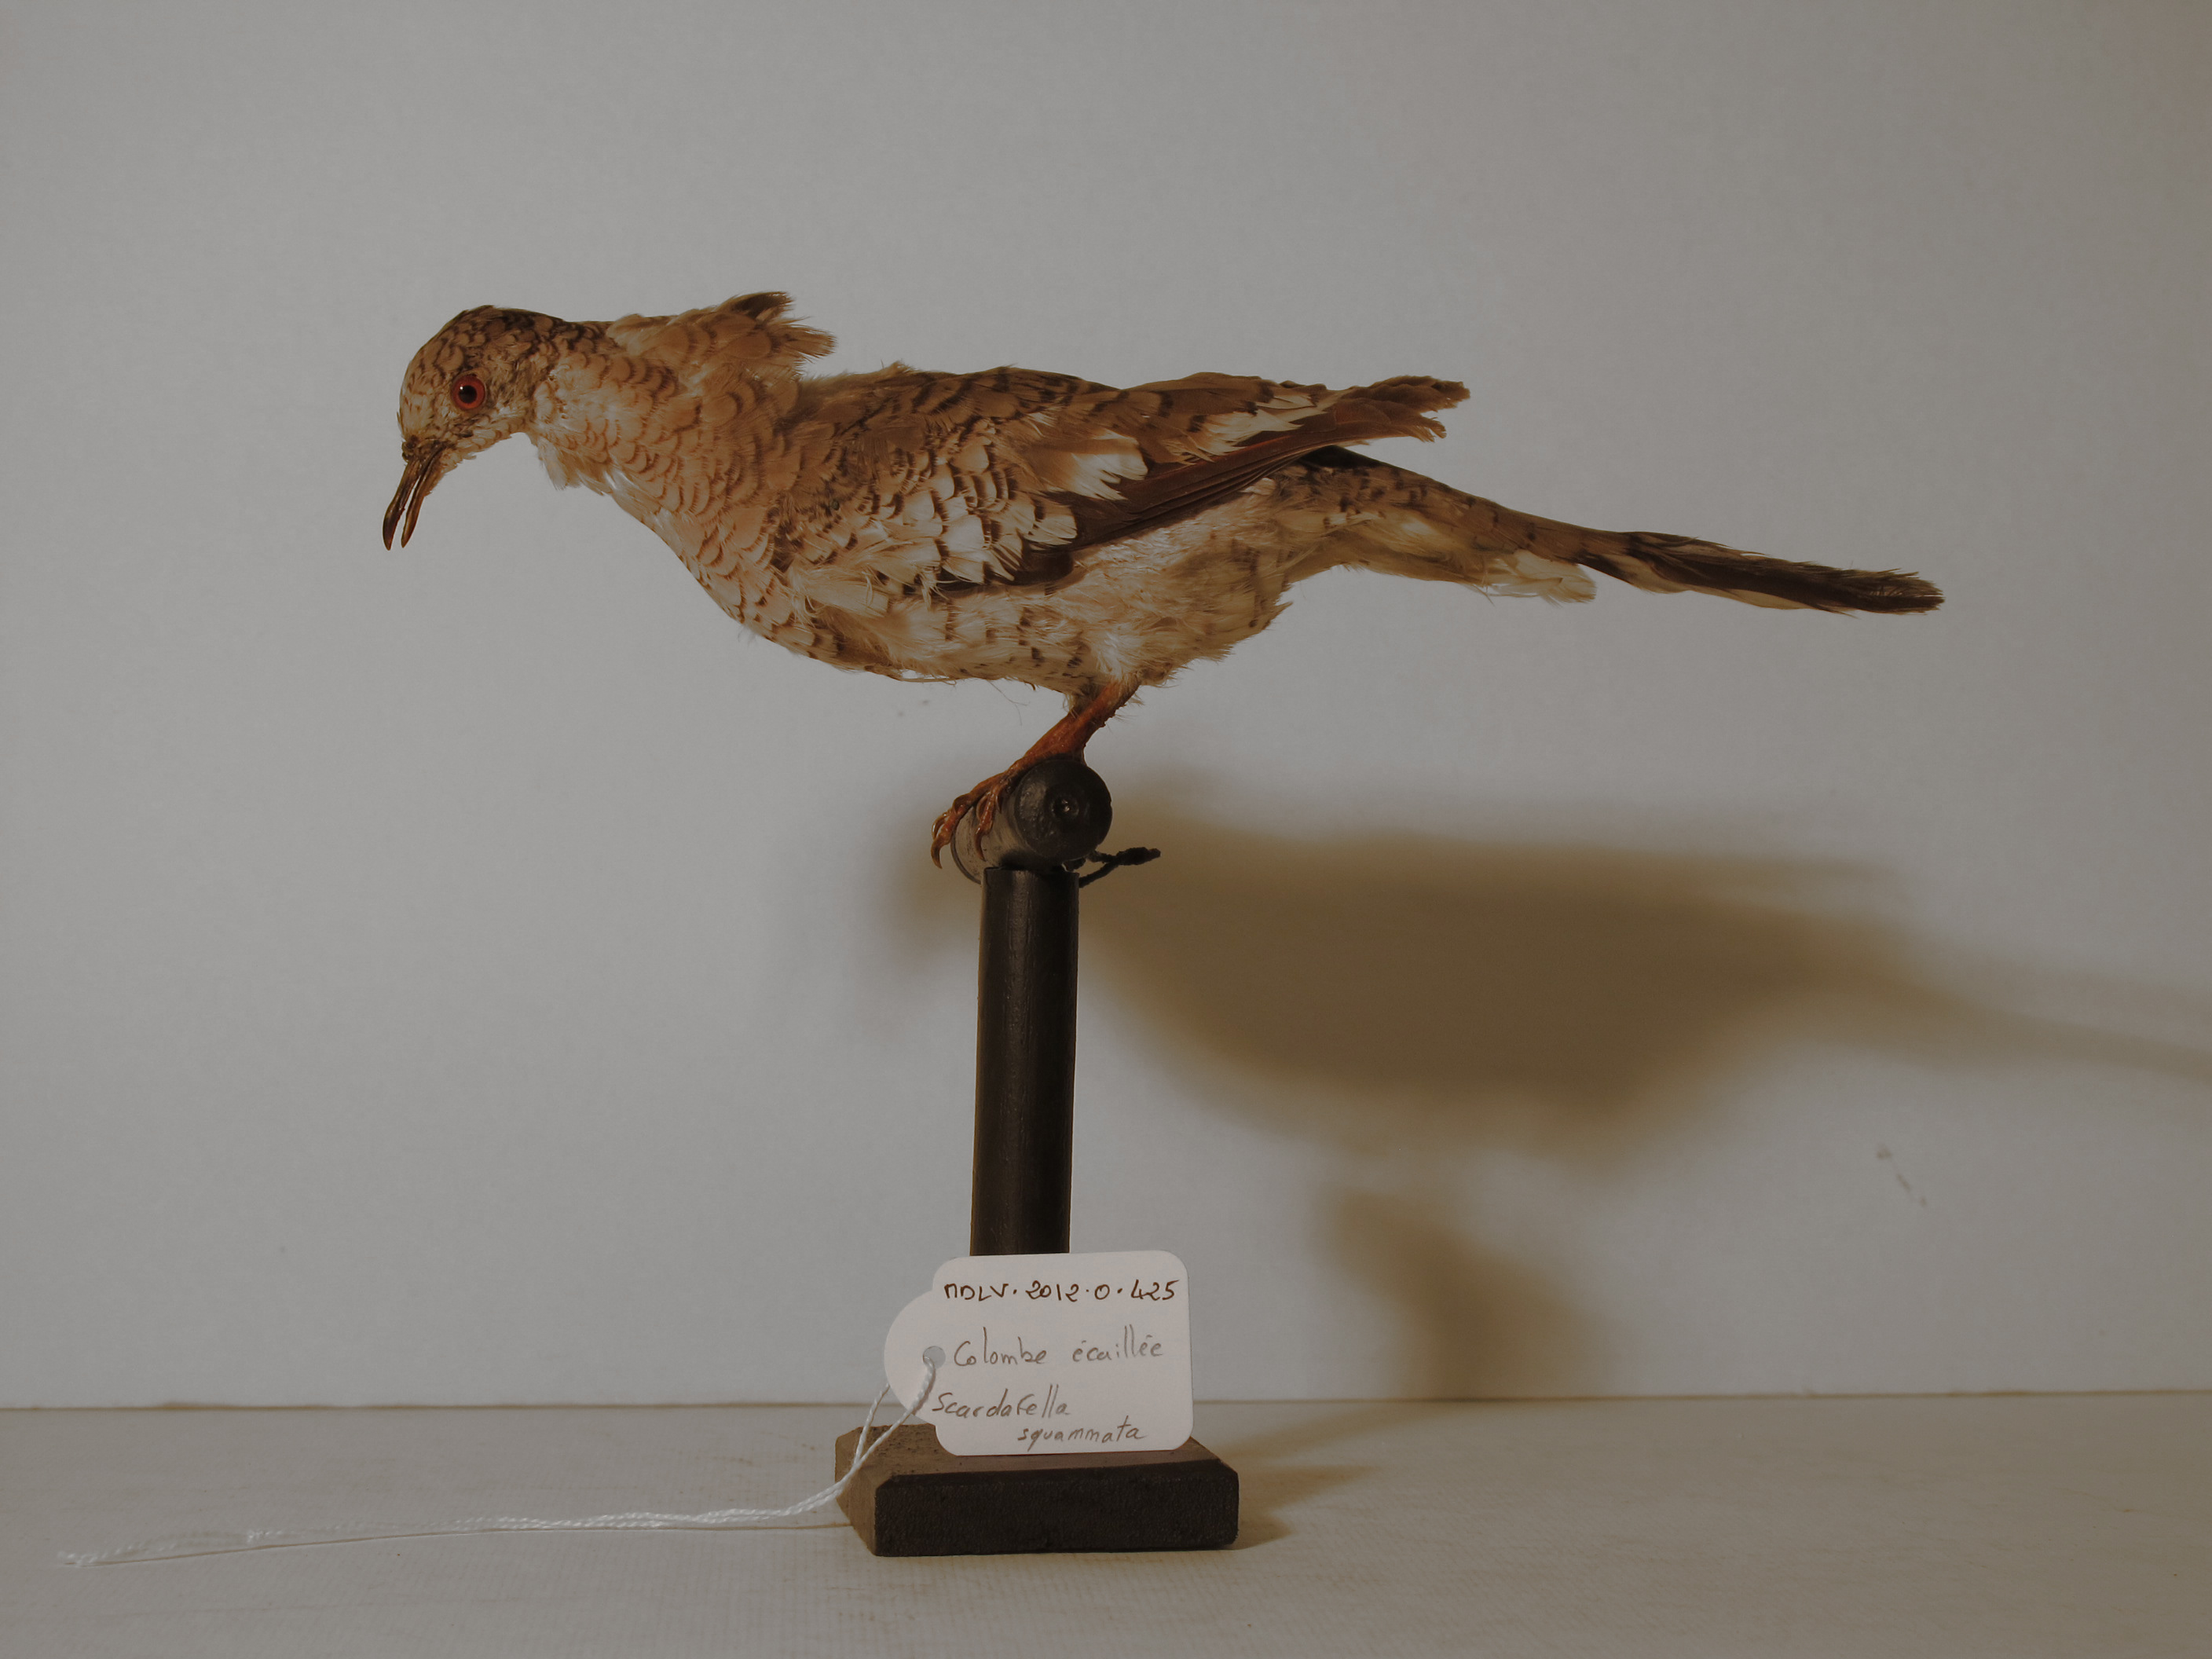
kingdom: Animalia
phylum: Chordata
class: Aves
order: Columbiformes
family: Columbidae
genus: Columbina
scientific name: Columbina squammata
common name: Scaled Dove
